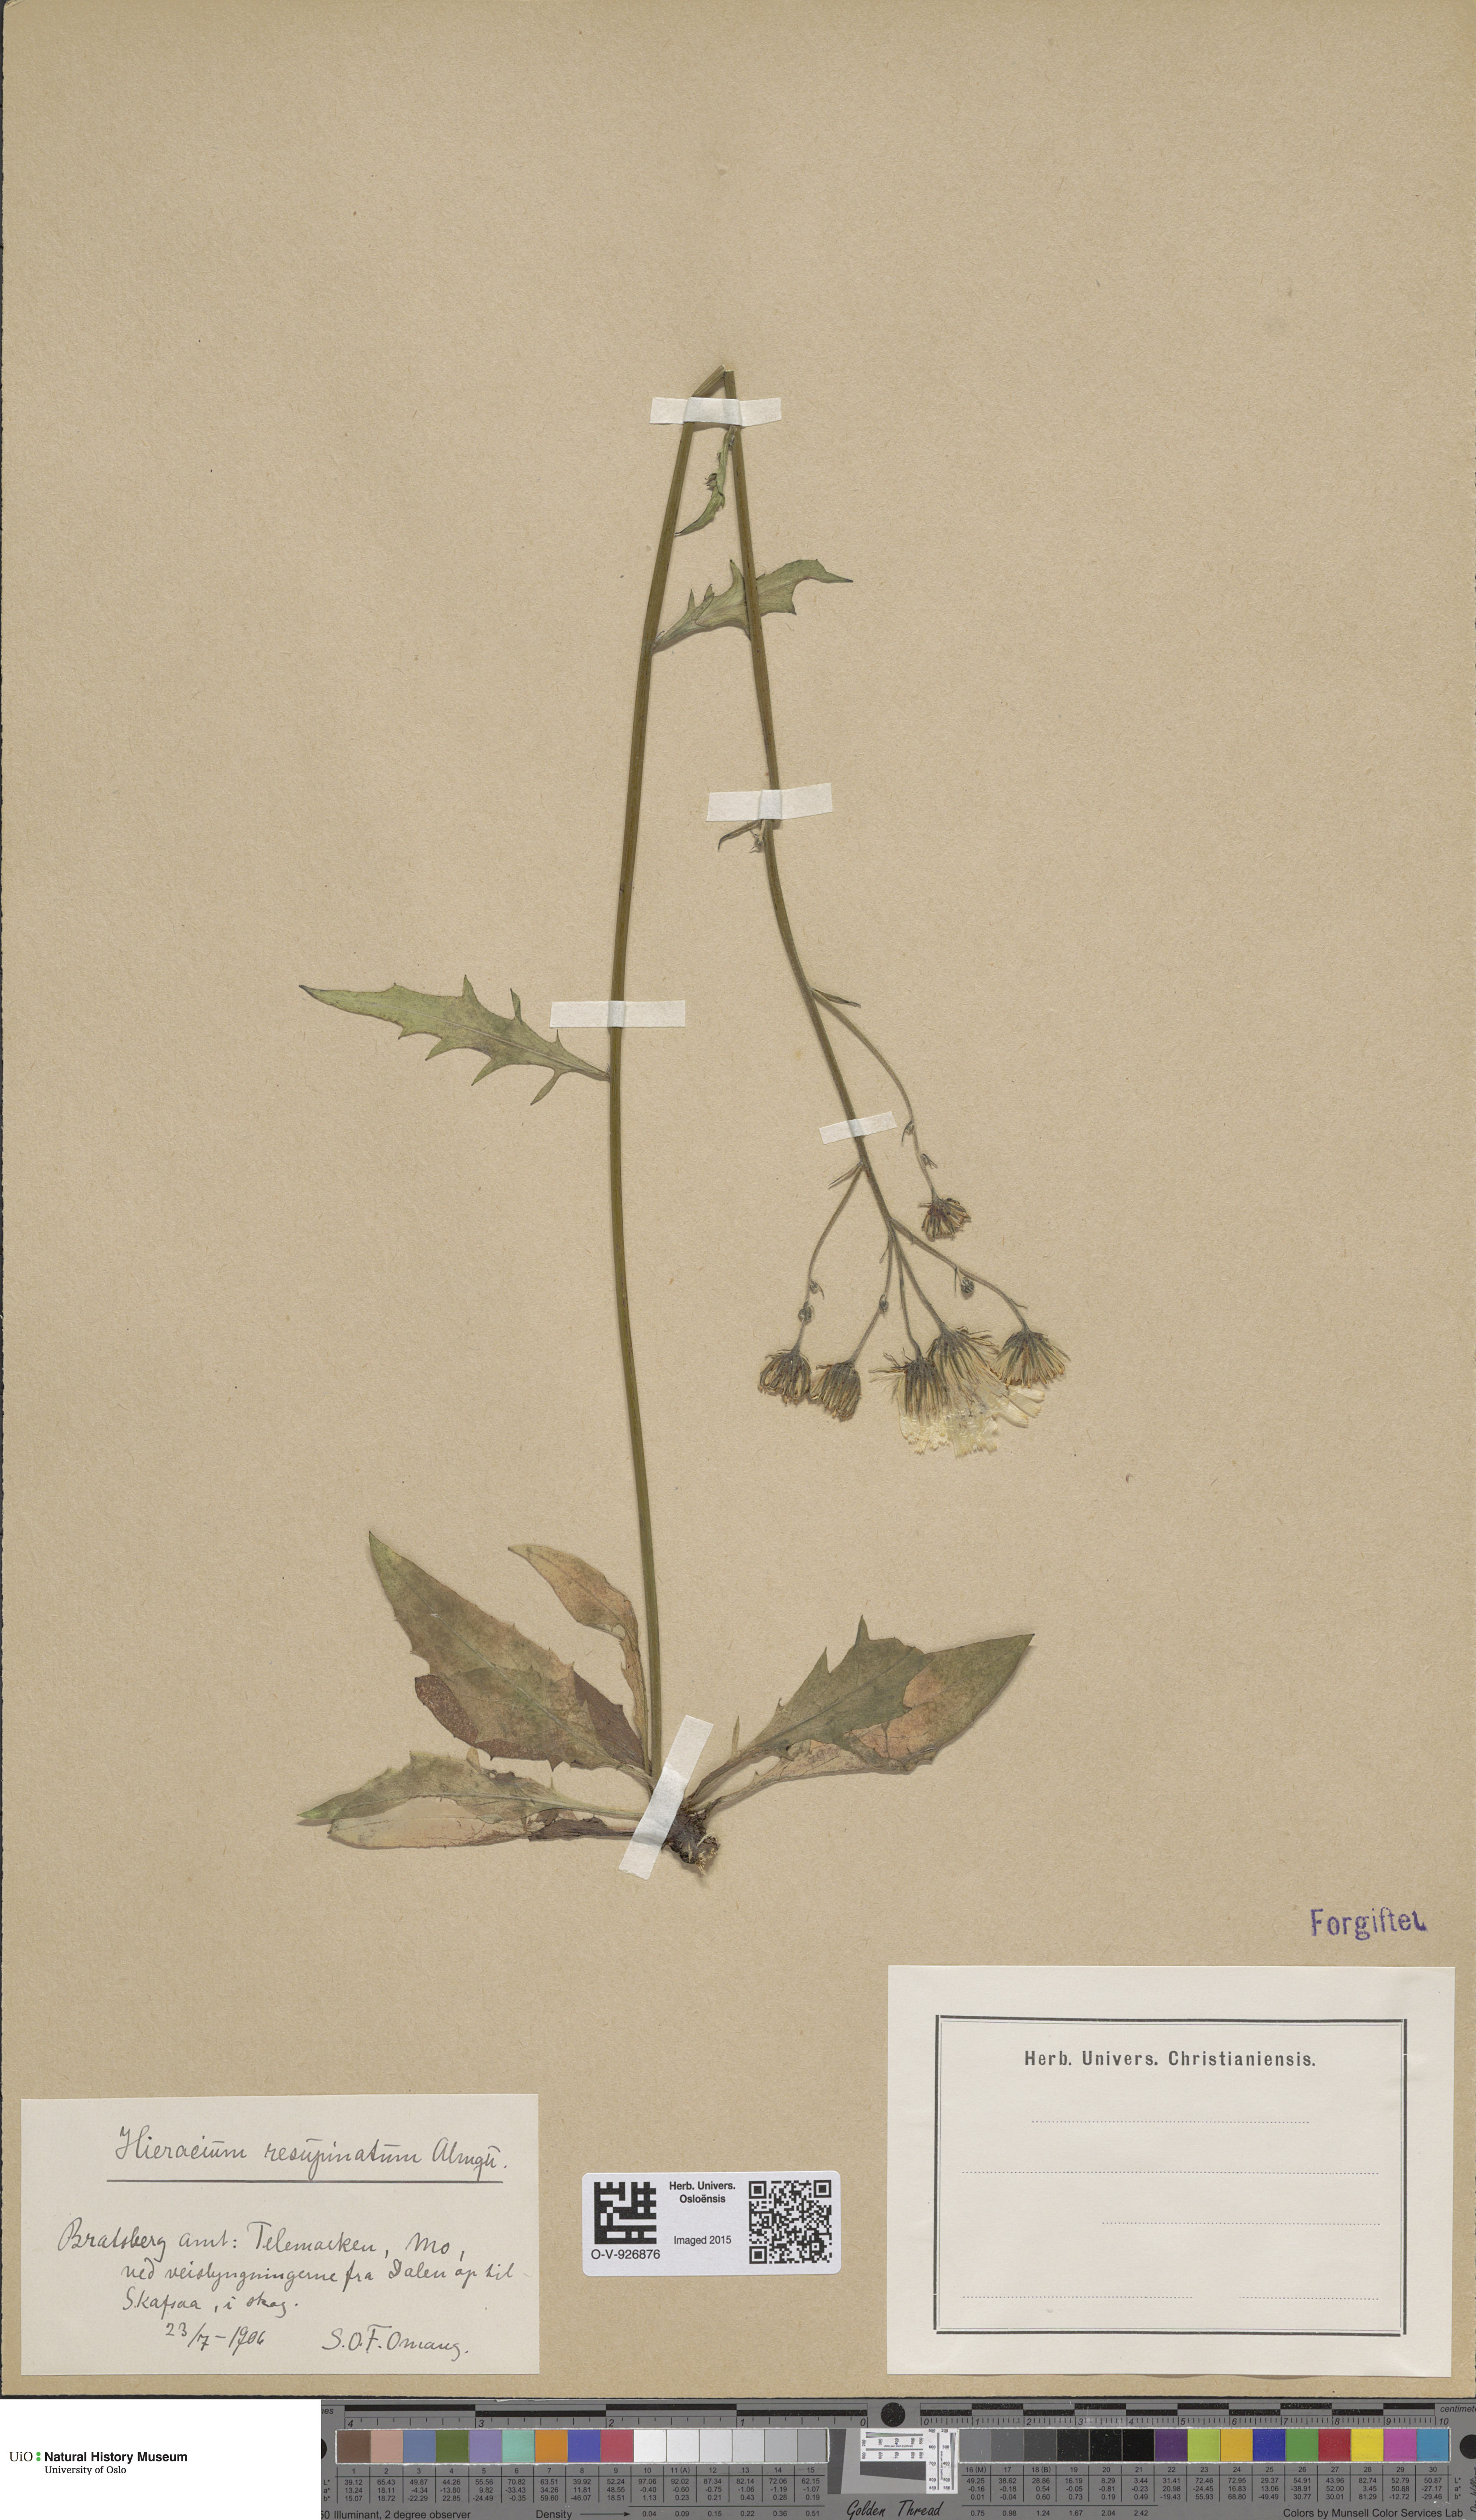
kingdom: Plantae
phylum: Tracheophyta
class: Magnoliopsida
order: Asterales
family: Asteraceae
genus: Hieracium
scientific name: Hieracium resupinatum
